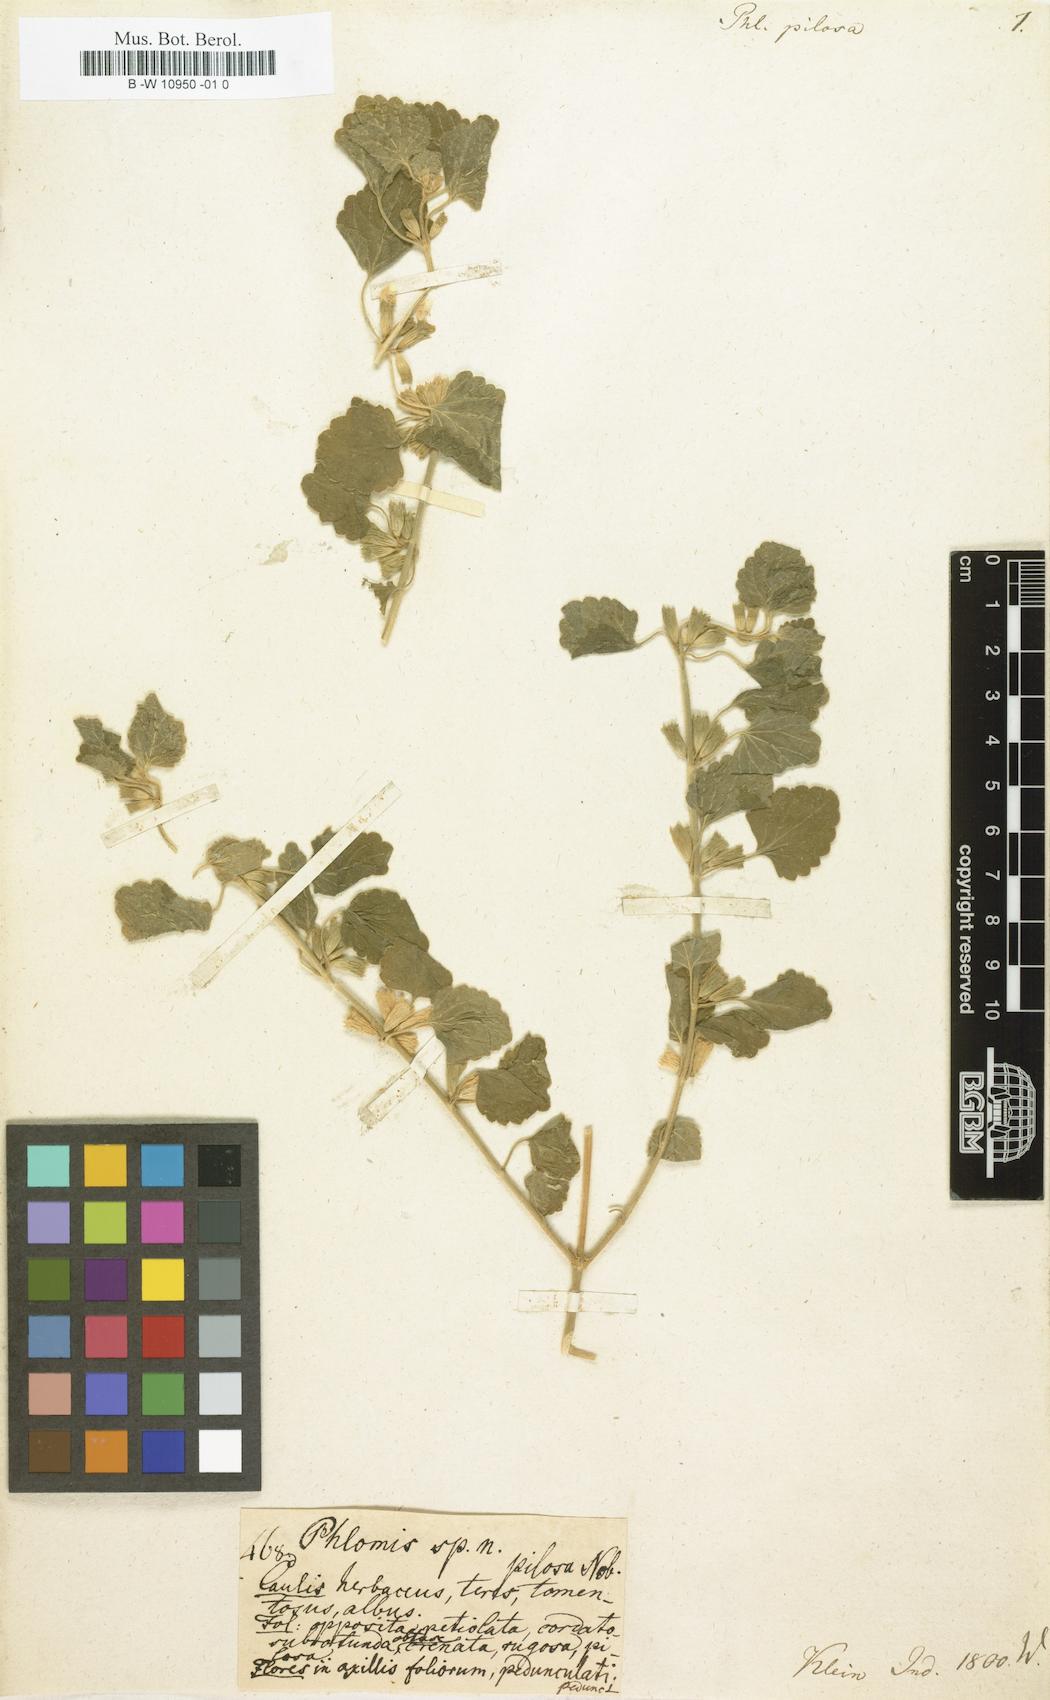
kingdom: Plantae
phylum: Tracheophyta
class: Magnoliopsida
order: Lamiales
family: Lamiaceae
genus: Phlomis
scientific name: Phlomis pilosa
